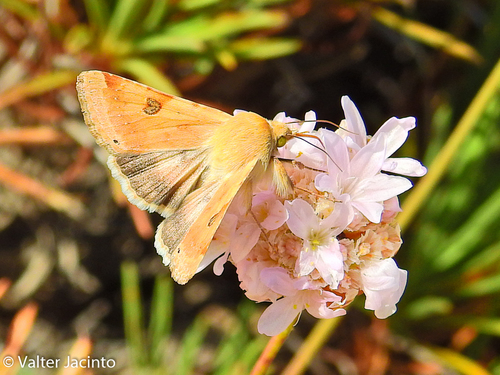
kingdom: Animalia
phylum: Arthropoda
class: Insecta
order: Lepidoptera
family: Noctuidae
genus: Heliothis
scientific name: Heliothis peltigera
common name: Bordered straw
